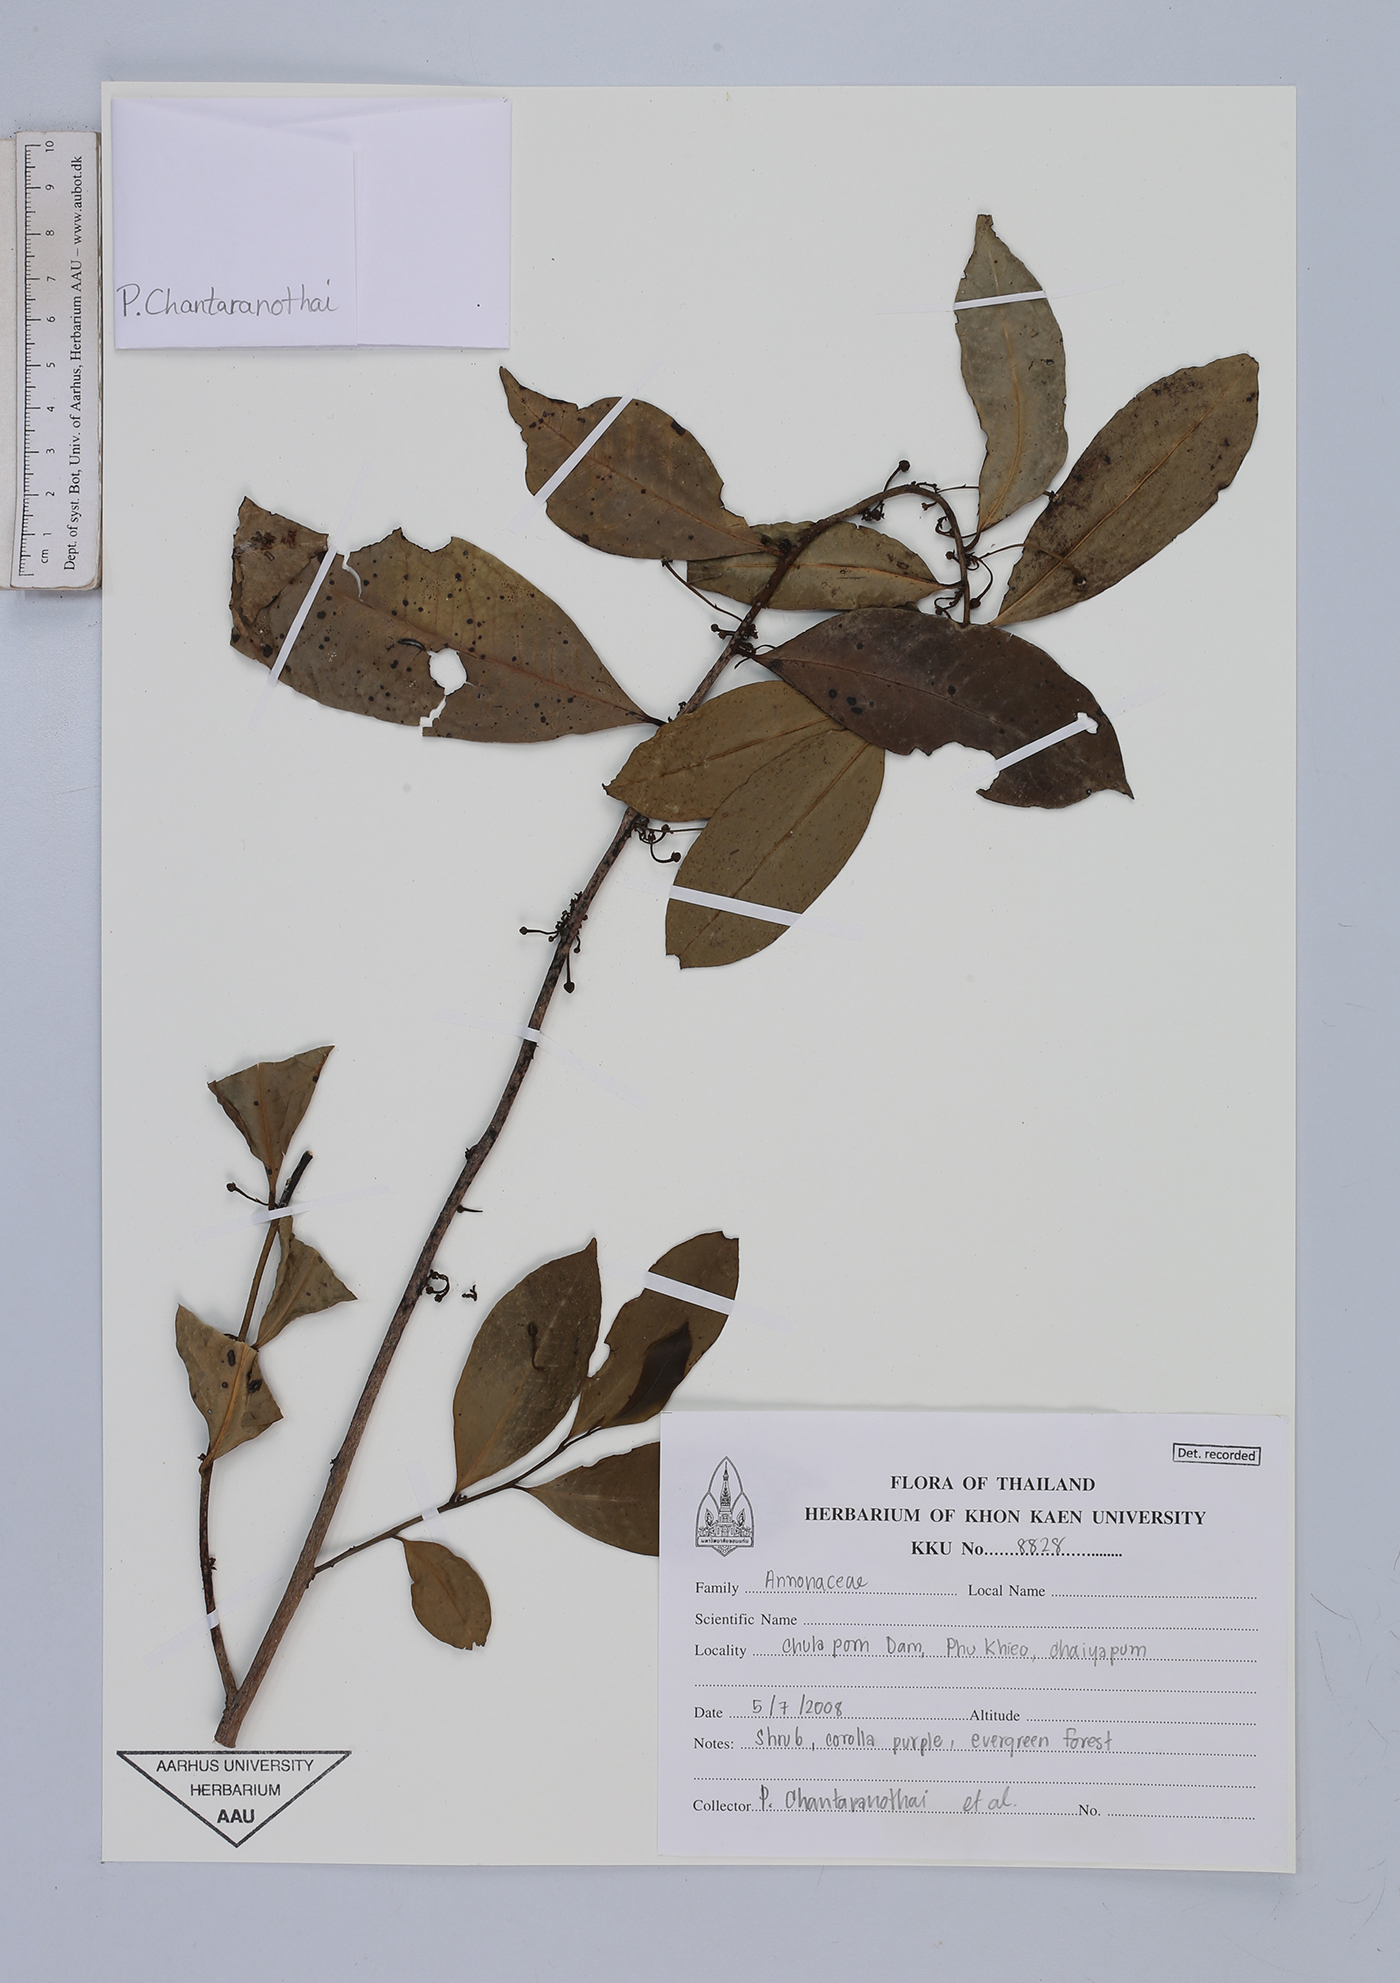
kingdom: Plantae
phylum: Tracheophyta
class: Magnoliopsida
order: Magnoliales
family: Annonaceae
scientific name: Annonaceae
